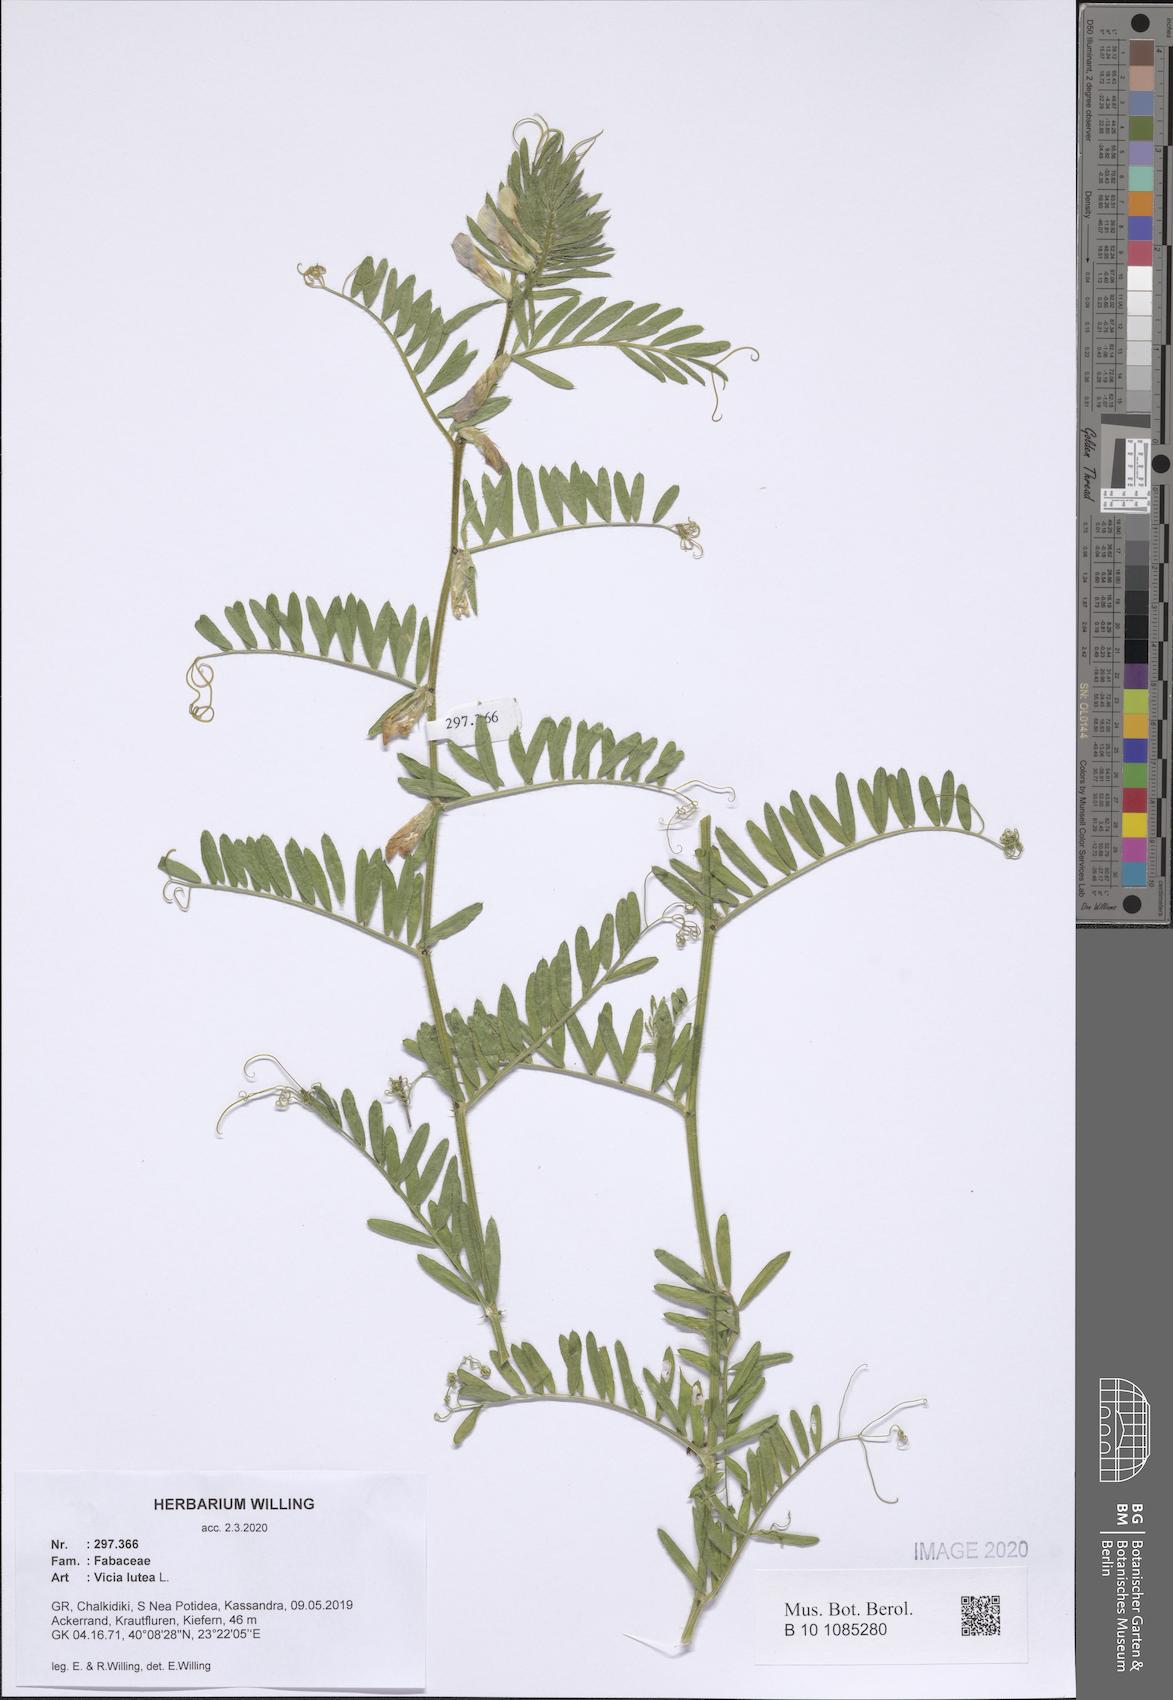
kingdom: Plantae
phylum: Tracheophyta
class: Magnoliopsida
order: Fabales
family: Fabaceae
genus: Vicia
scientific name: Vicia lutea
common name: Smooth yellow vetch
